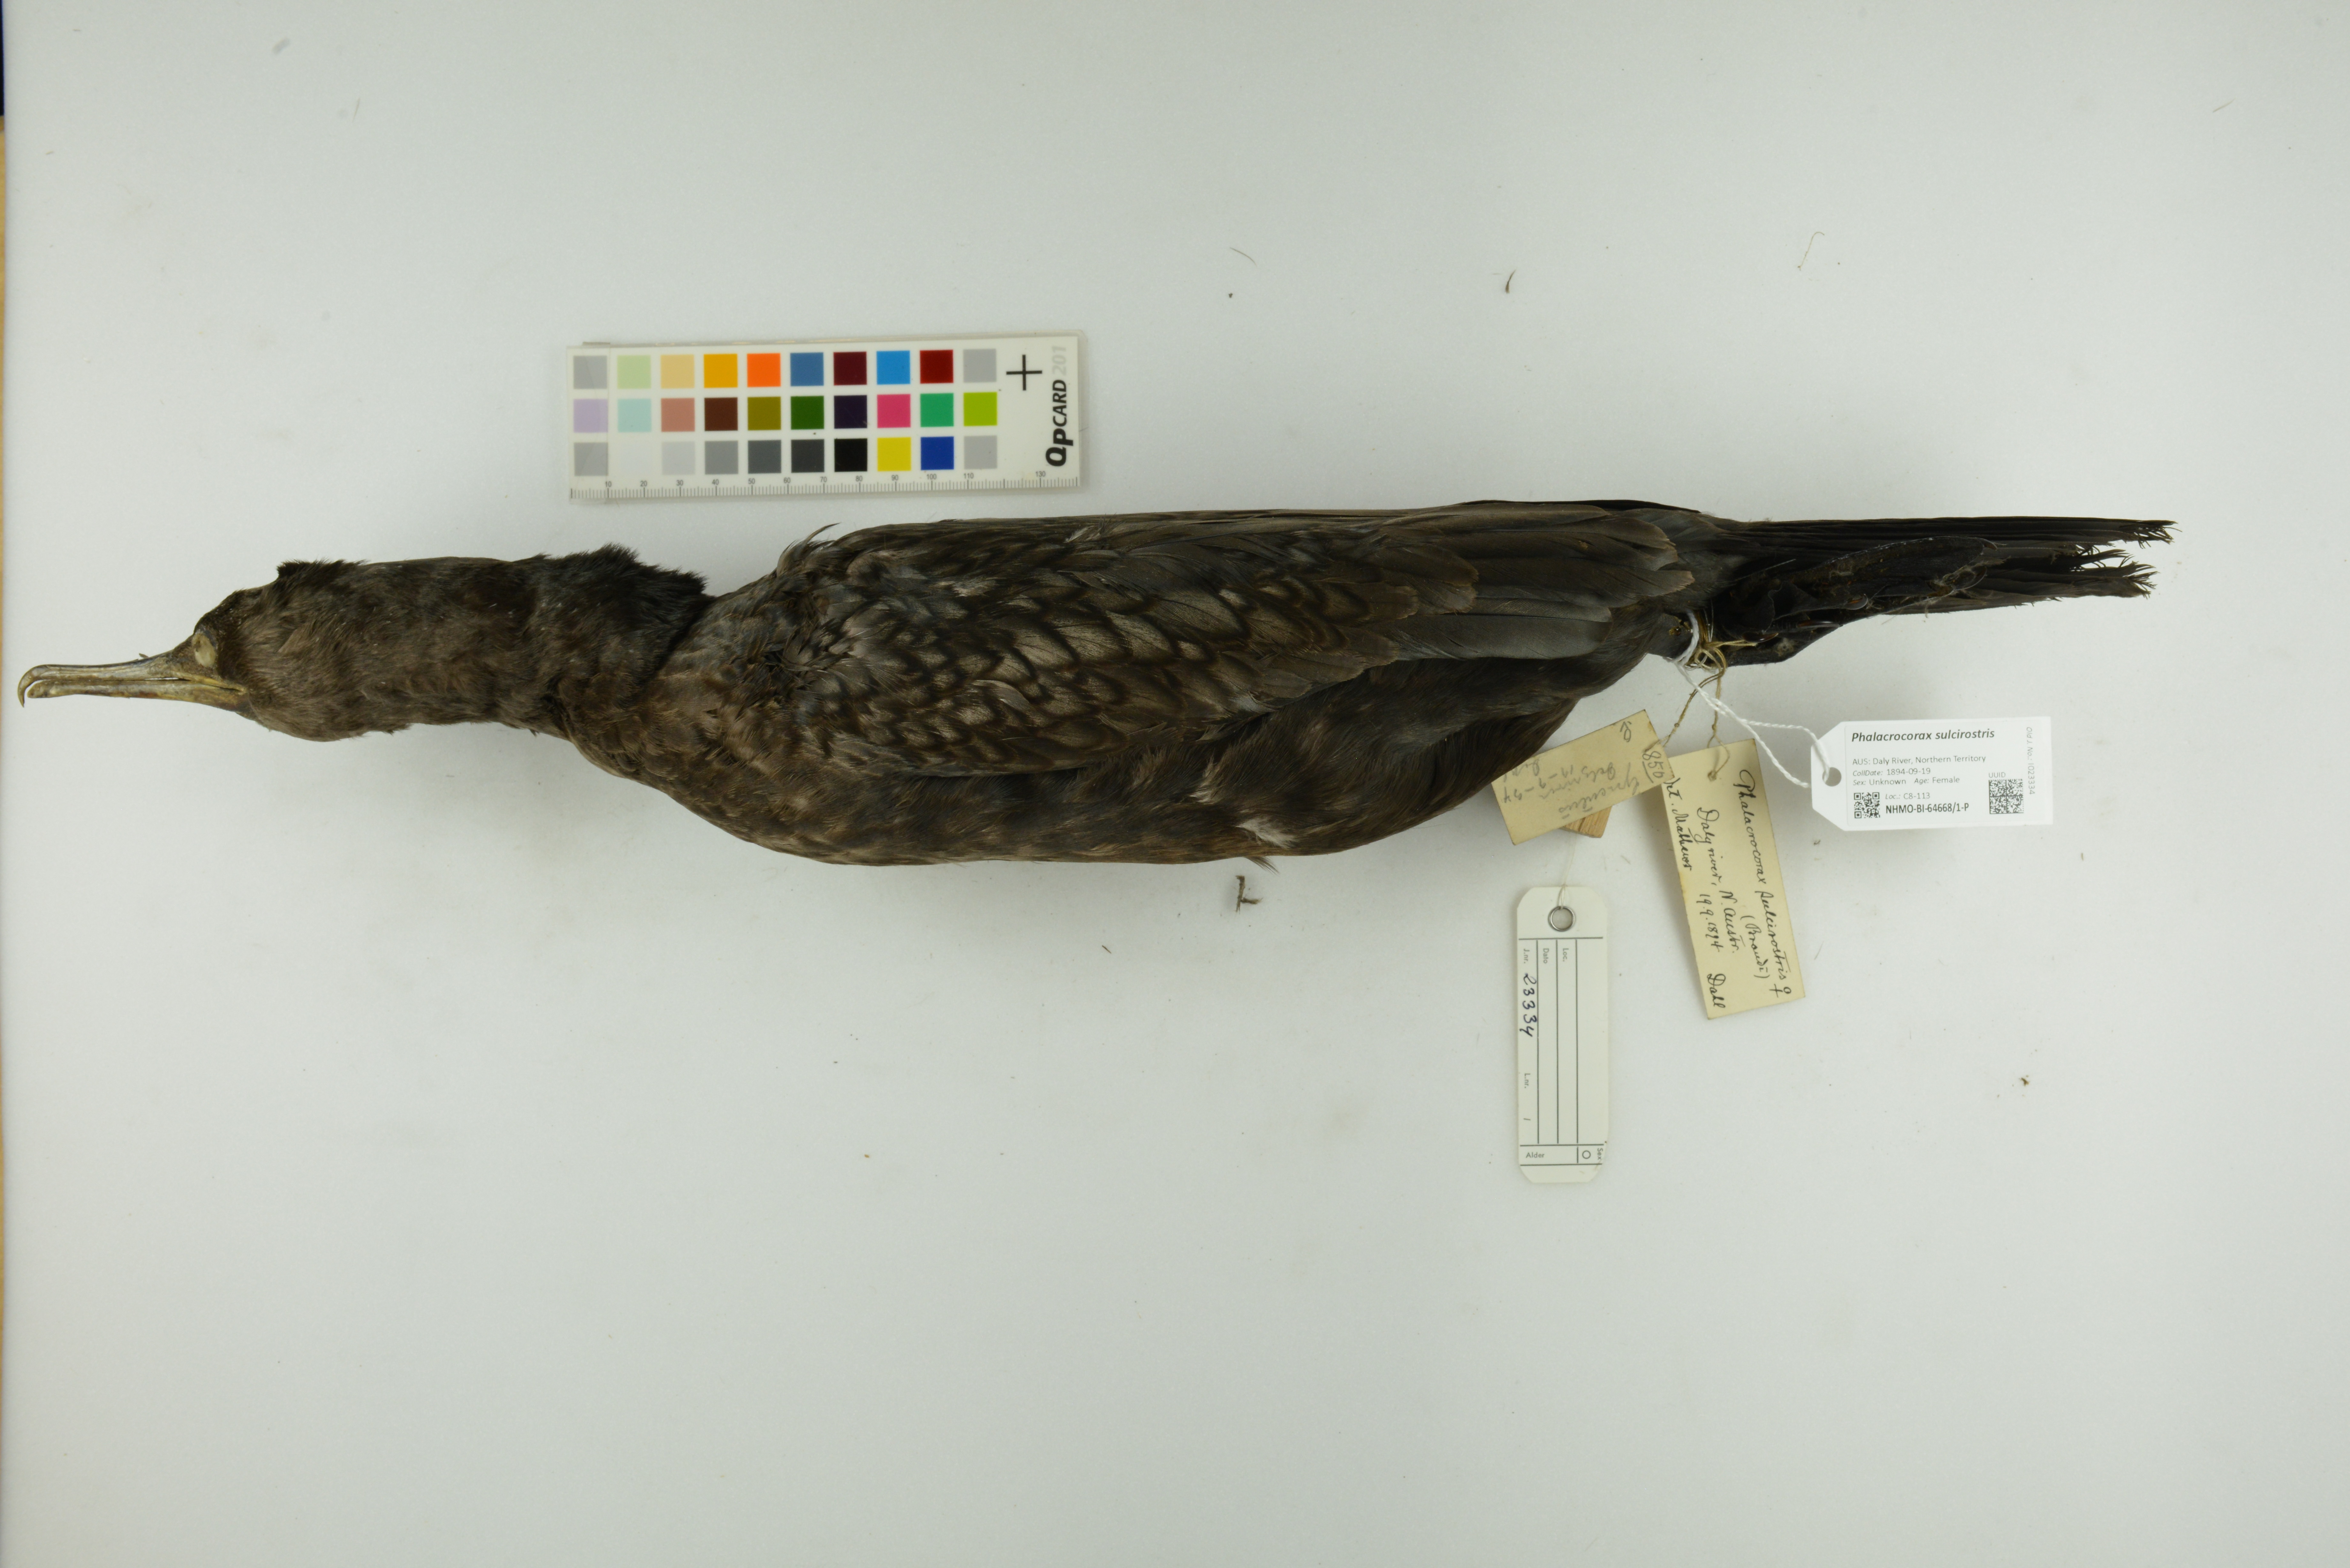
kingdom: Animalia
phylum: Chordata
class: Aves
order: Suliformes
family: Phalacrocoracidae
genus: Phalacrocorax
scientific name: Phalacrocorax sulcirostris
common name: Little black cormorant
